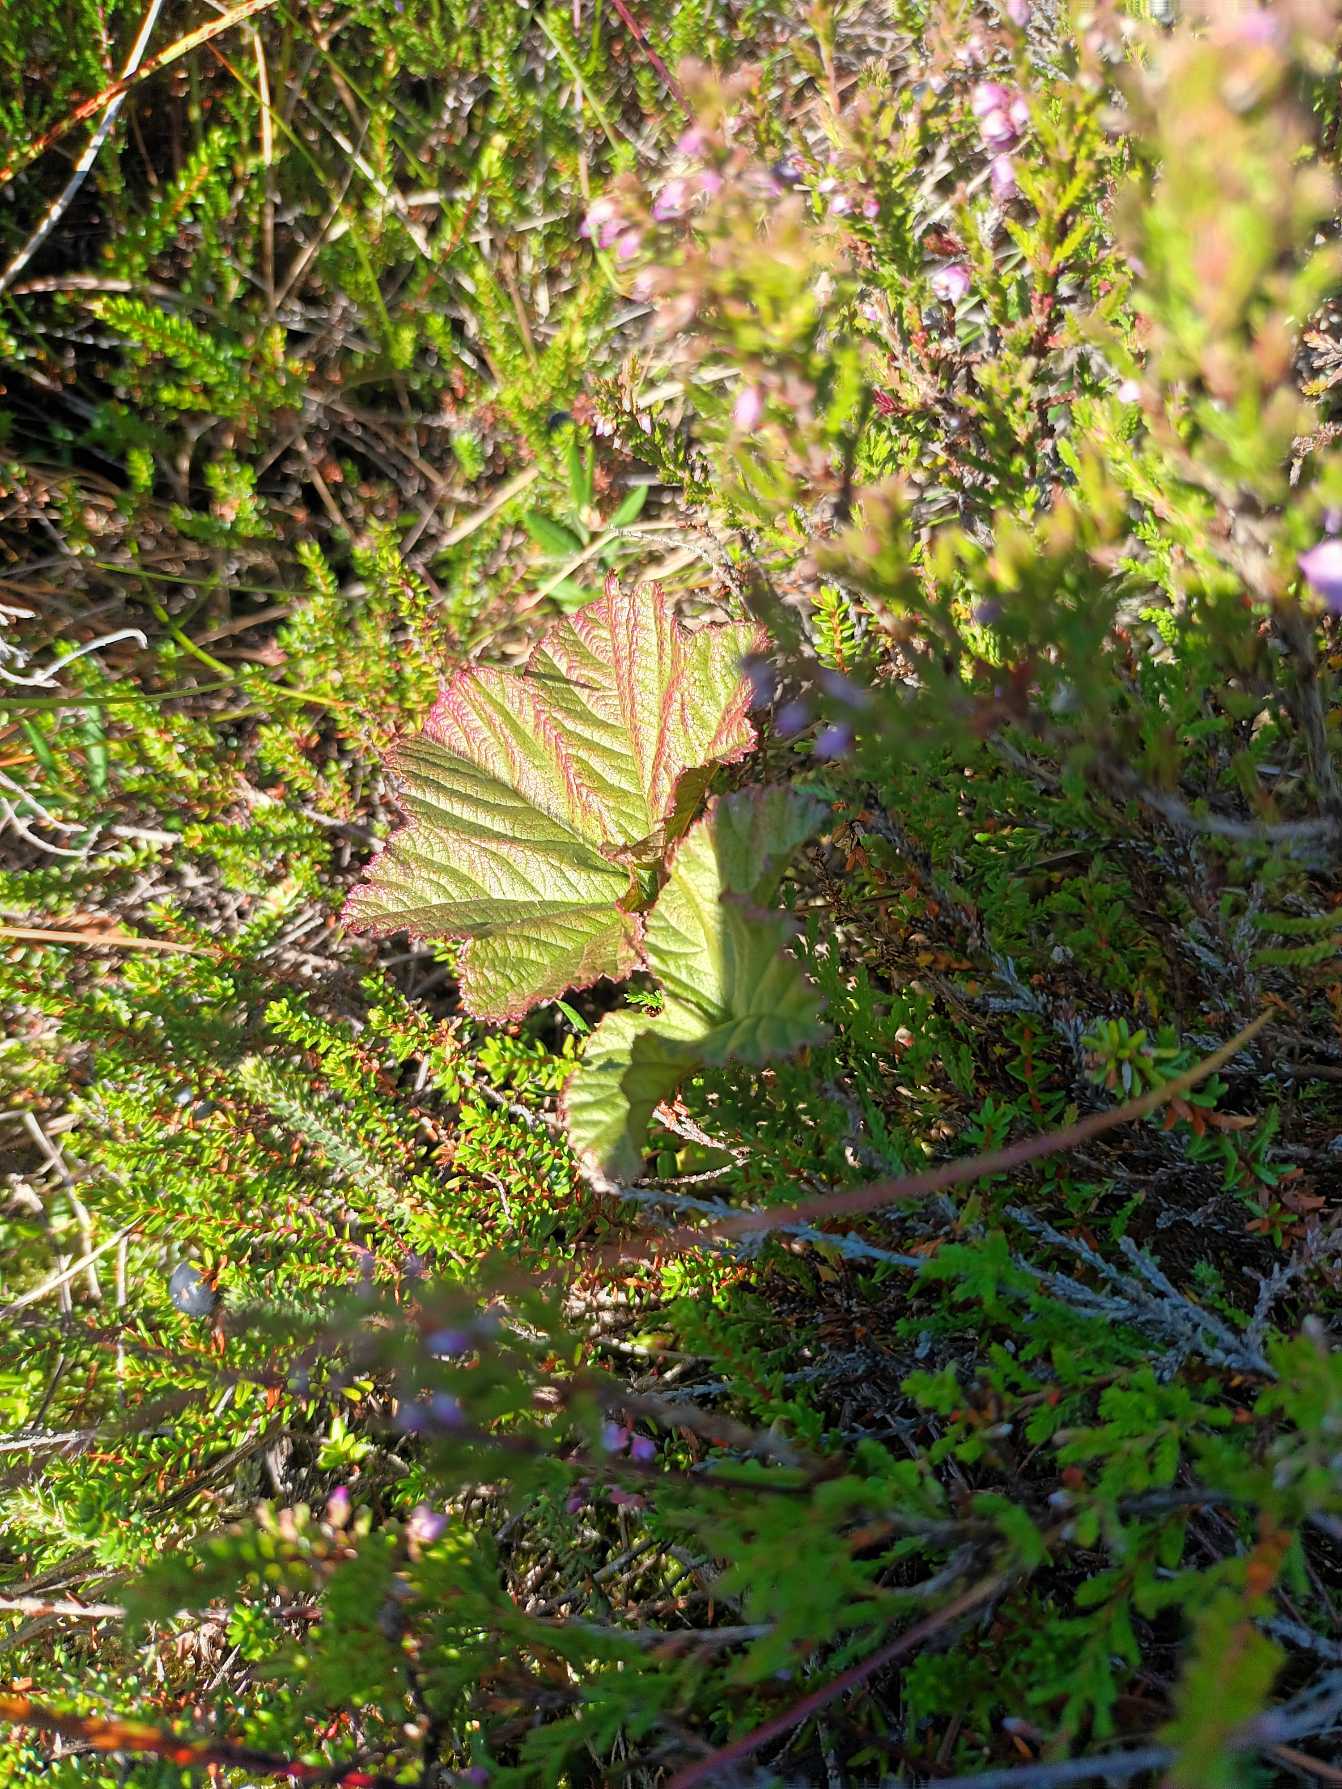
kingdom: Plantae
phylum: Tracheophyta
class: Magnoliopsida
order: Rosales
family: Rosaceae
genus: Rubus
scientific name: Rubus chamaemorus
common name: Multebær
